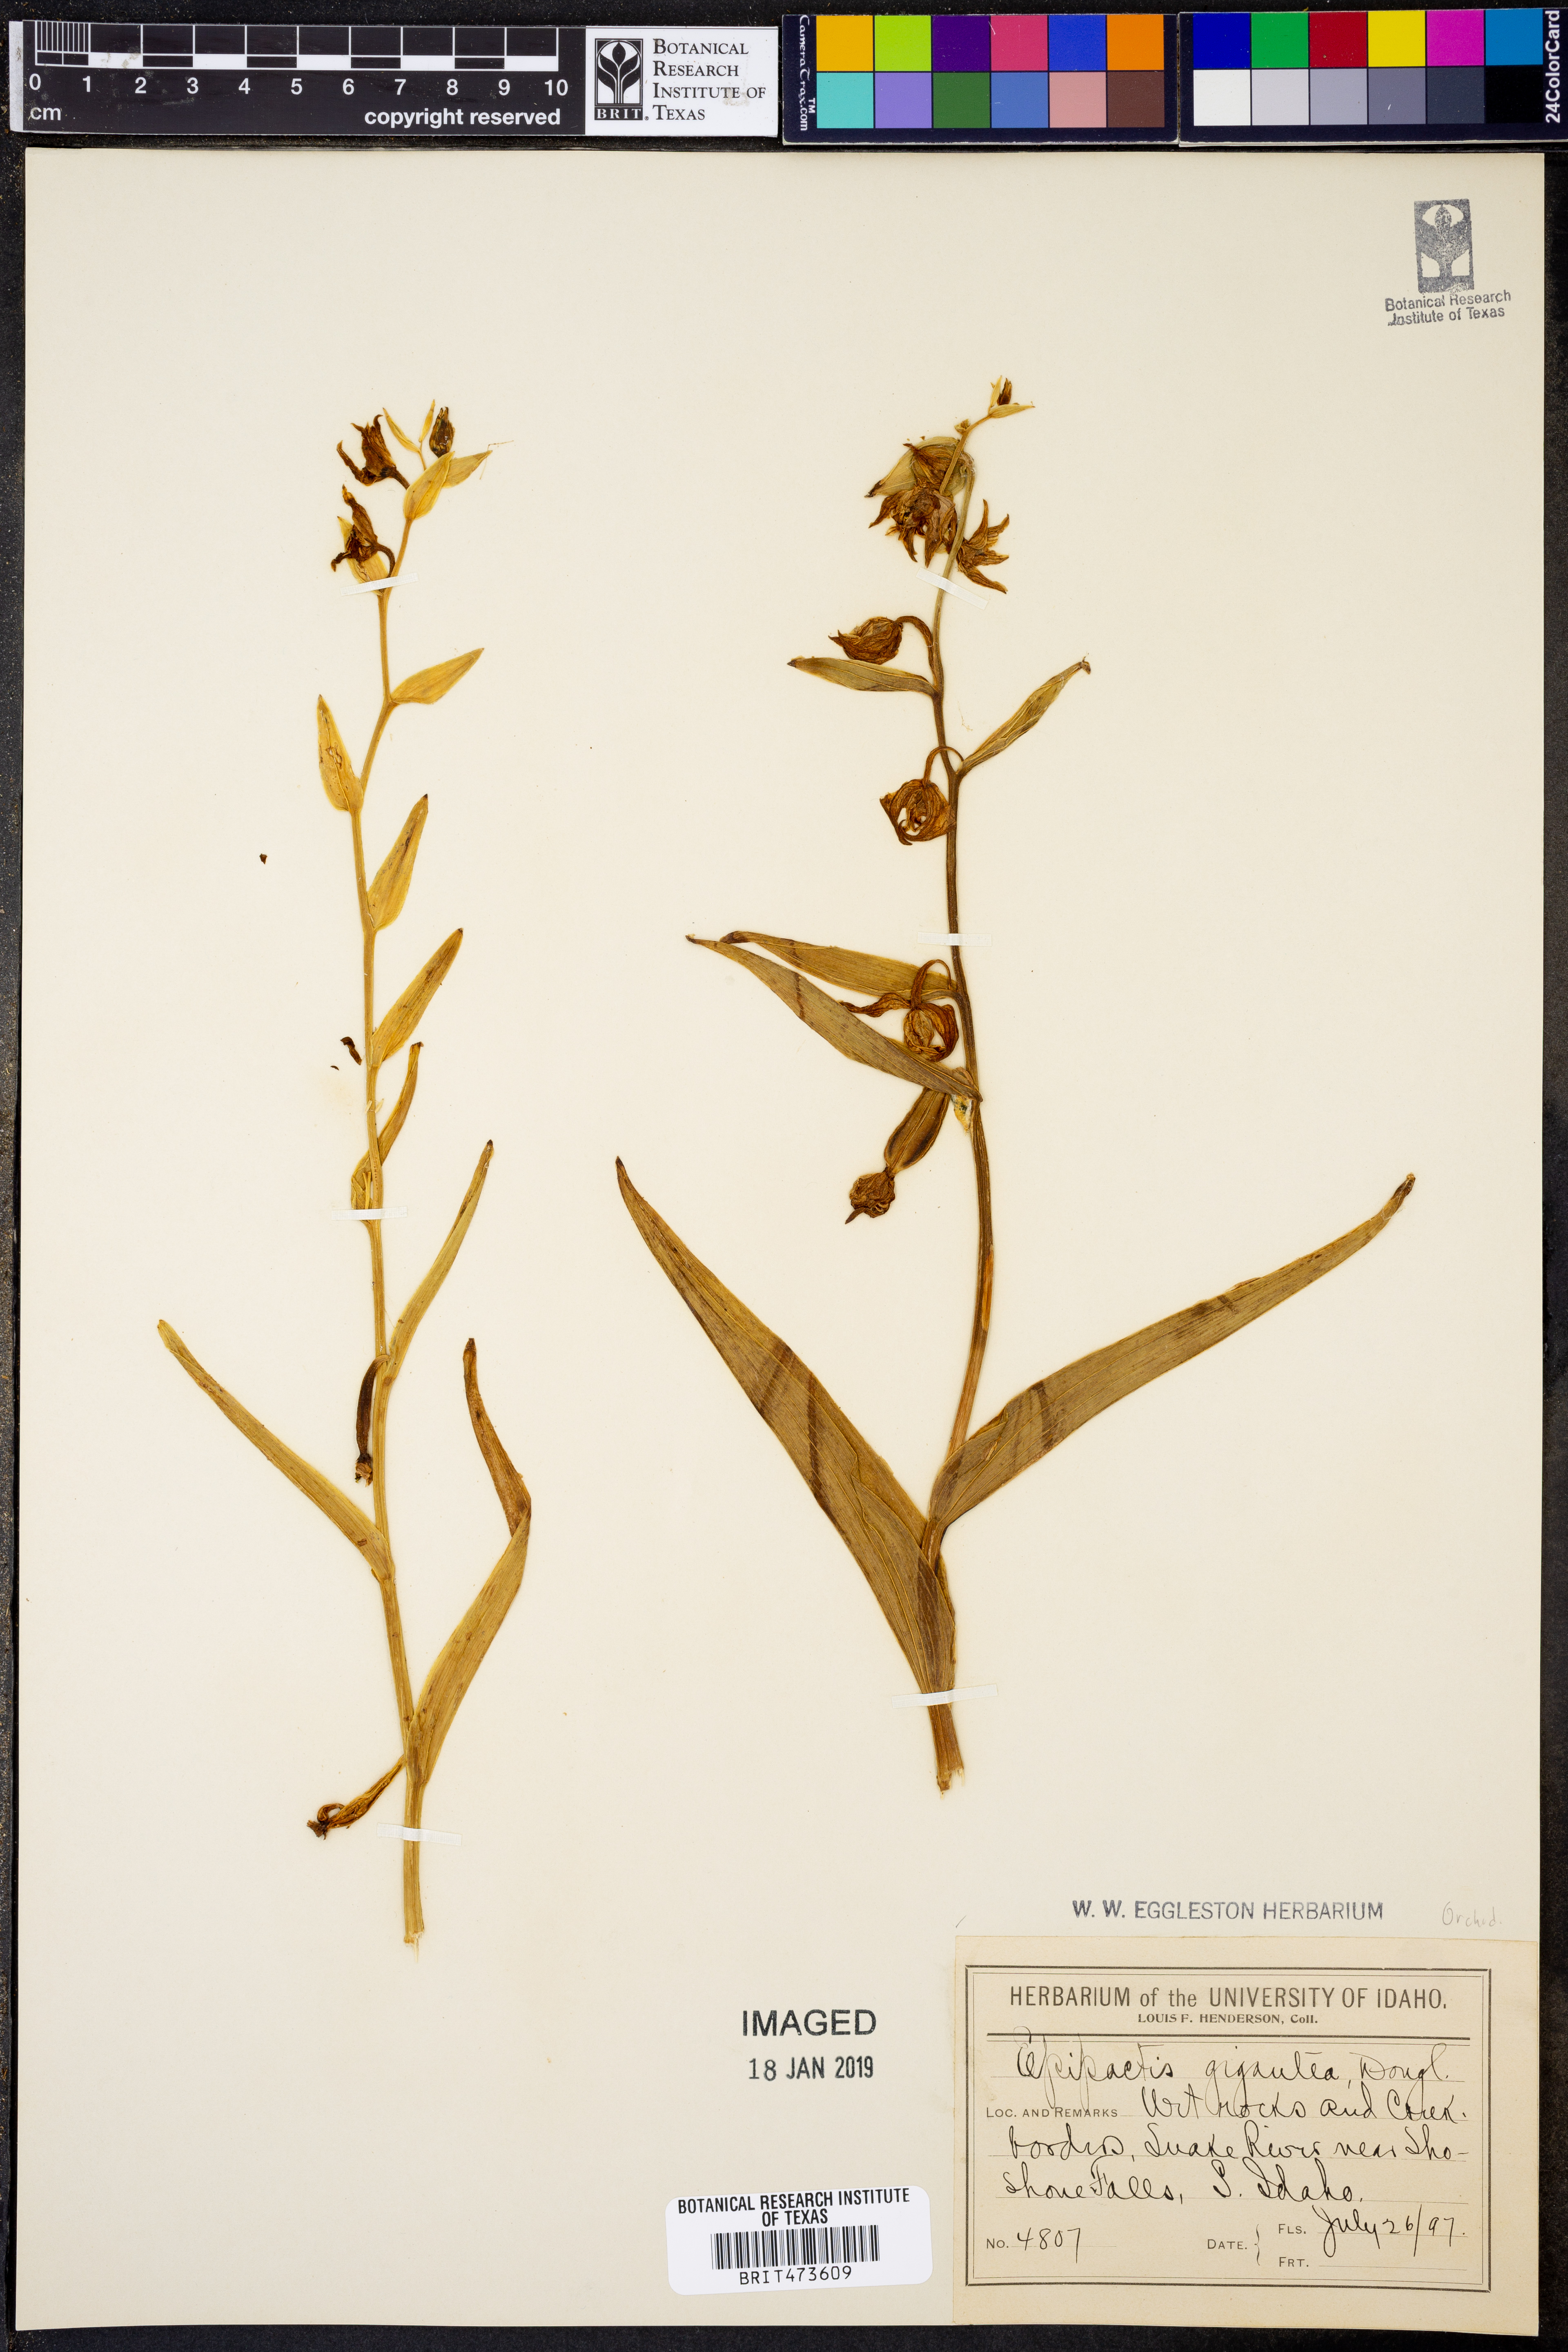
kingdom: Plantae
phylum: Tracheophyta
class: Liliopsida
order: Asparagales
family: Orchidaceae
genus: Epipactis
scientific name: Epipactis gigantea
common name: Chatterbox
